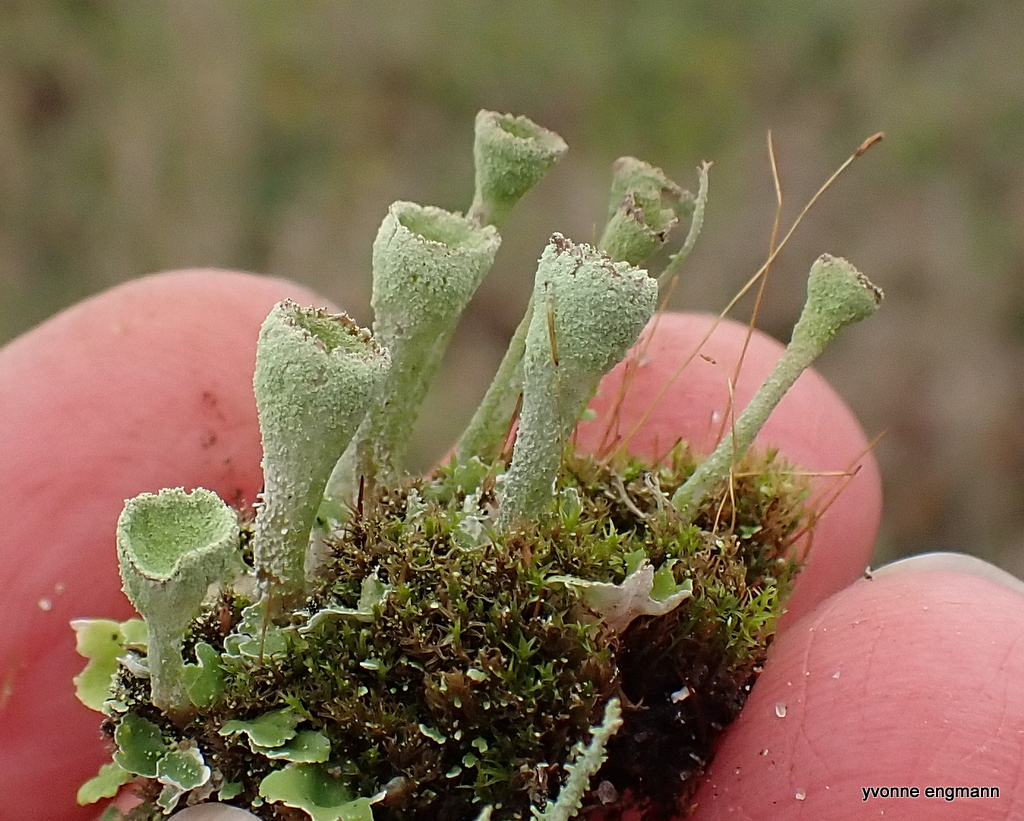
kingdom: Fungi
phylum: Ascomycota
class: Lecanoromycetes
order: Lecanorales
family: Cladoniaceae
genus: Cladonia
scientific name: Cladonia fimbriata
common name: bleggrøn bægerlav
